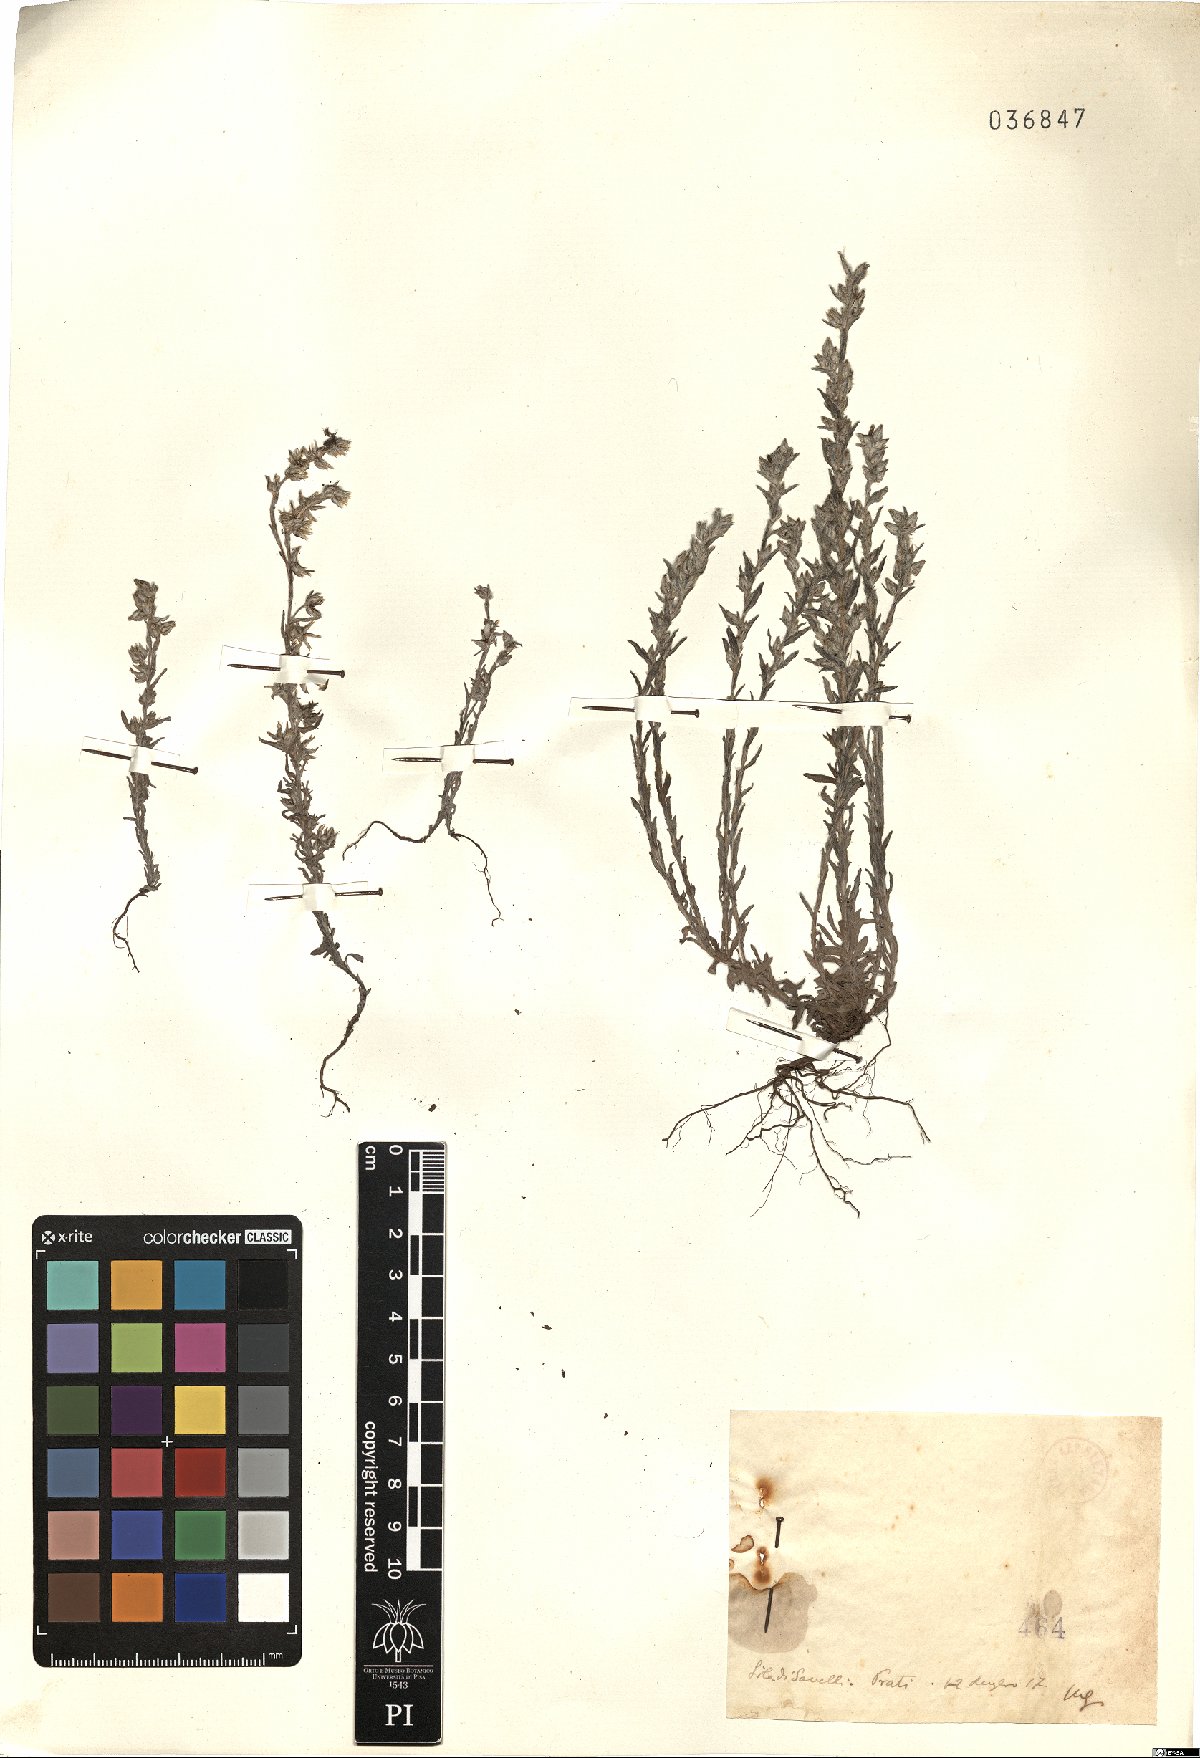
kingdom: Plantae
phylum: Tracheophyta
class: Magnoliopsida
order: Asterales
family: Asteraceae
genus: Filago
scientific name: Filago
